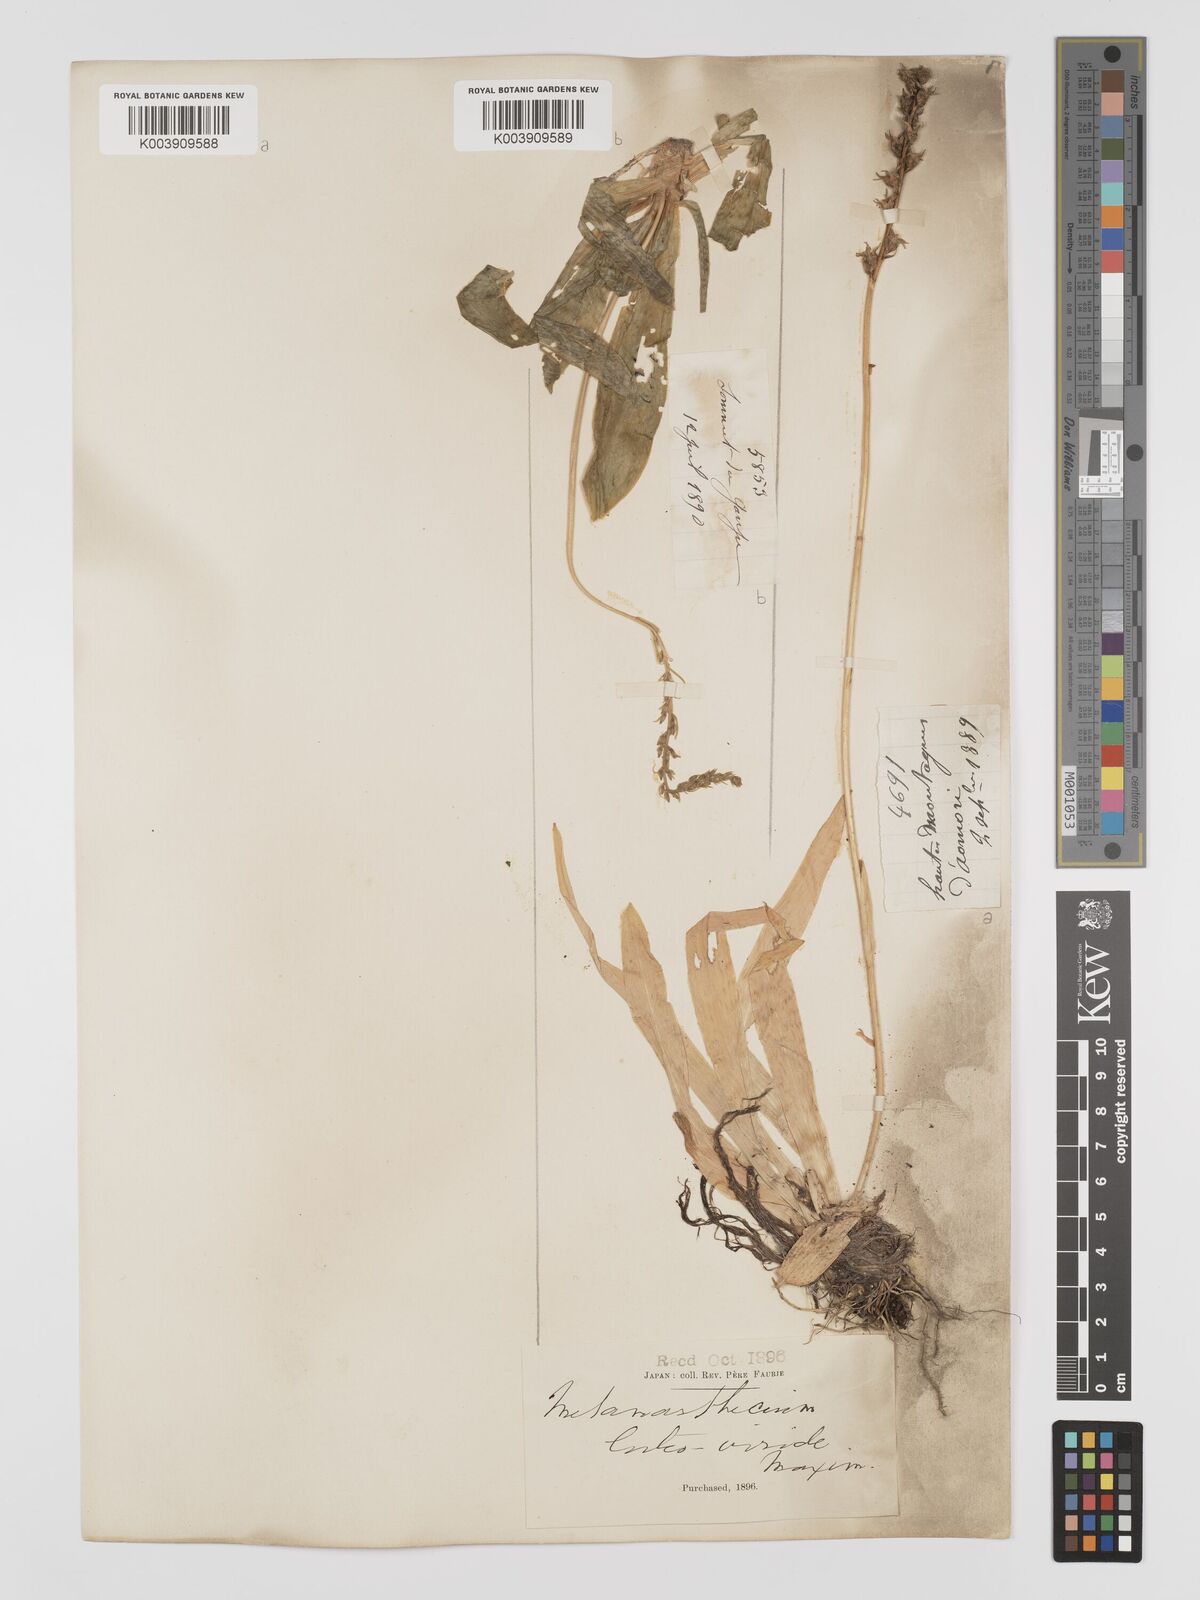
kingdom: Plantae
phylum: Tracheophyta
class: Liliopsida
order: Dioscoreales
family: Nartheciaceae
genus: Metanarthecium
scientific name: Metanarthecium luteoviride
